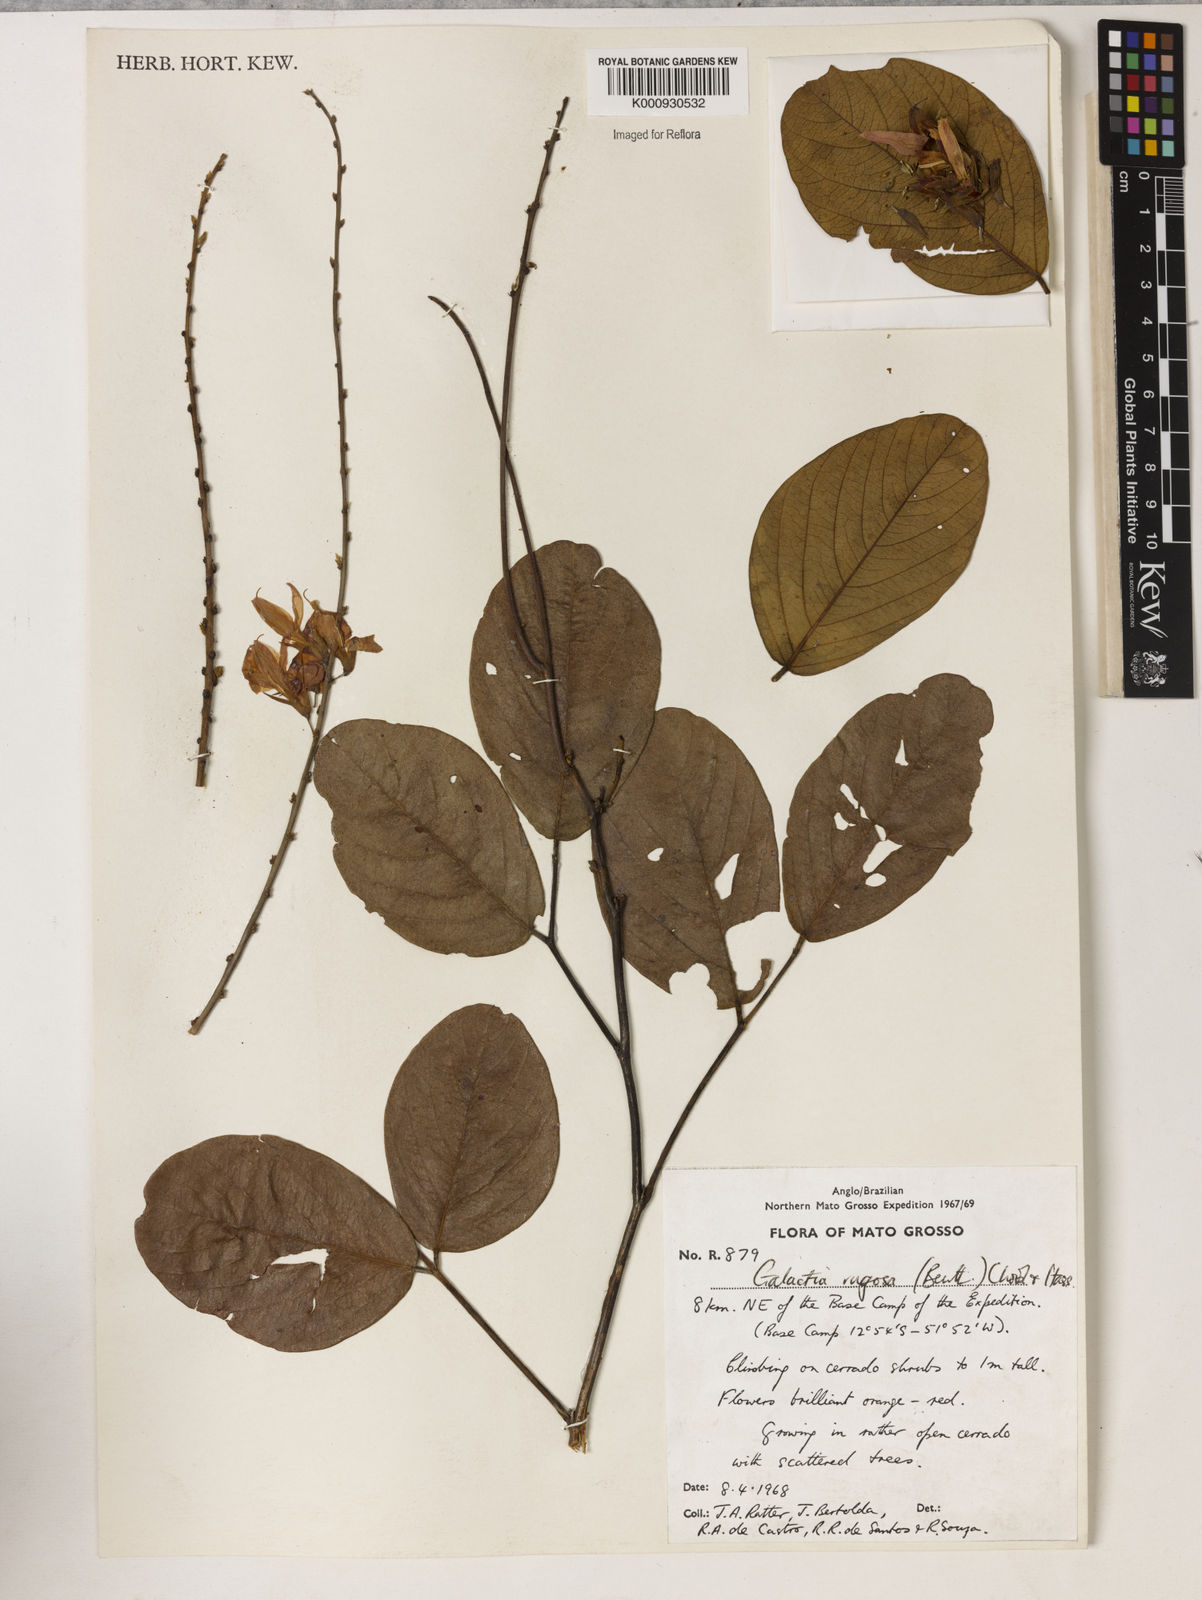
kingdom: Plantae
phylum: Tracheophyta
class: Magnoliopsida
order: Fabales
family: Fabaceae
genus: Galactia
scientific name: Galactia
